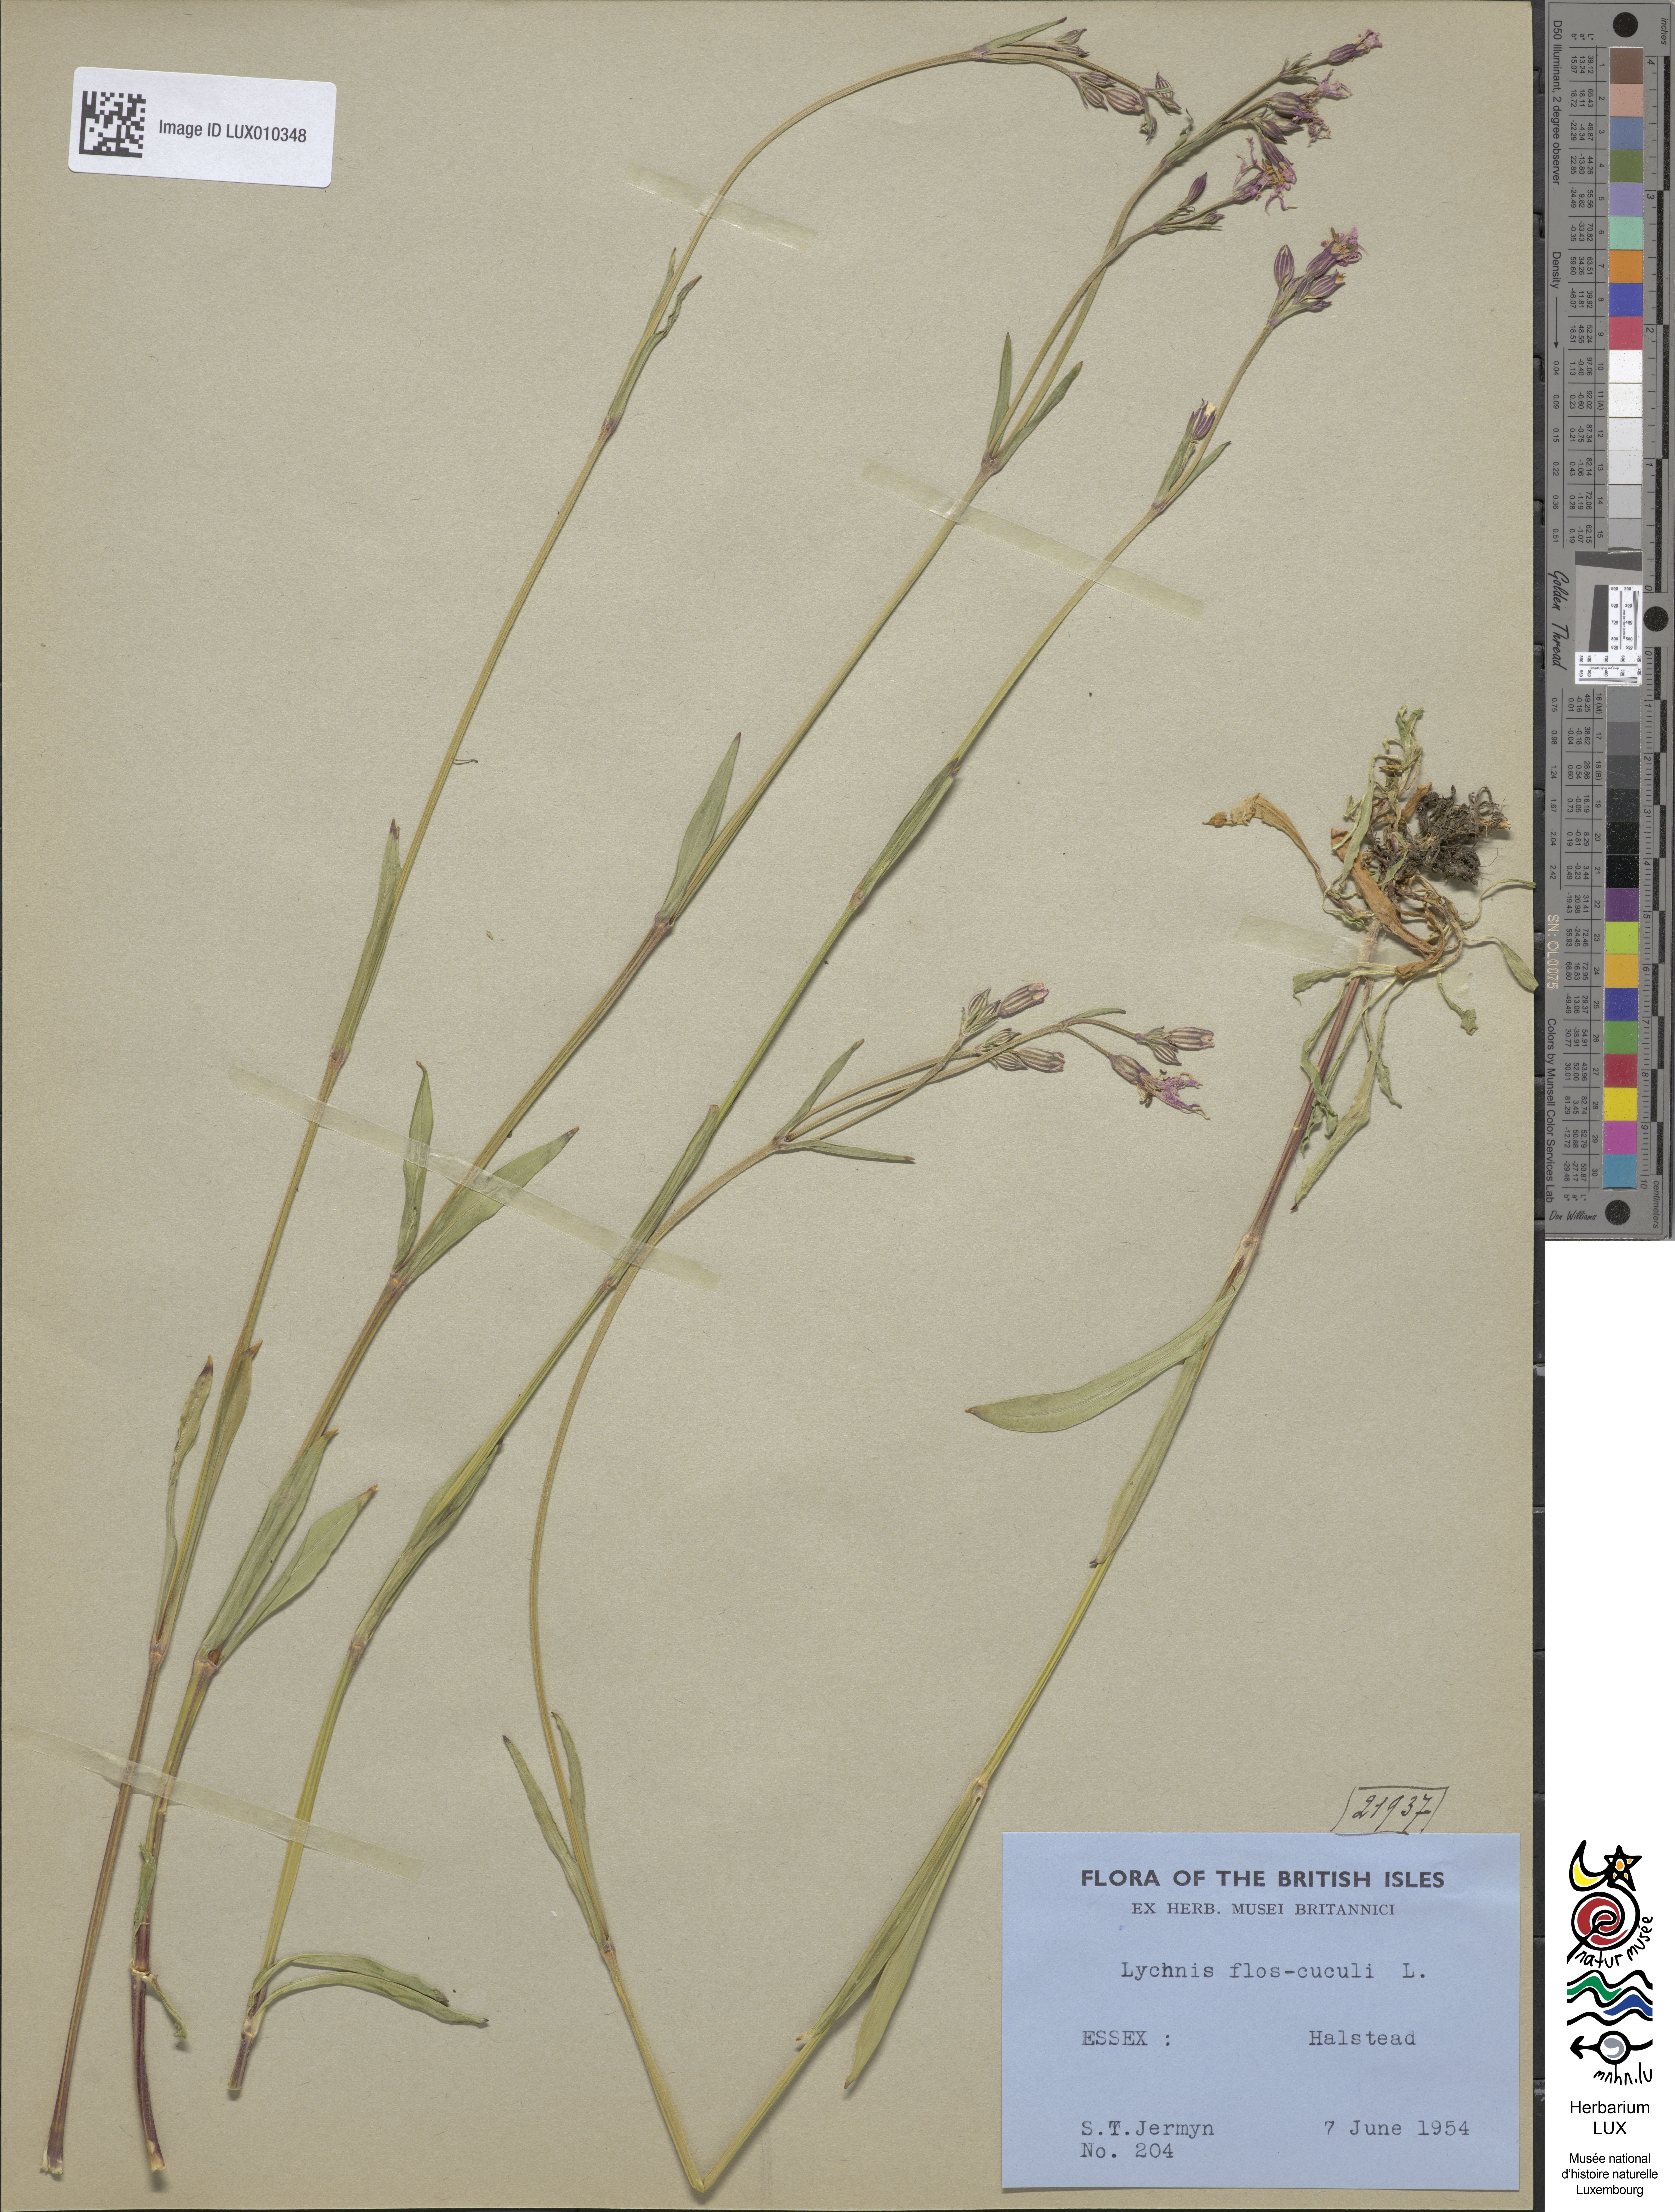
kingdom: Plantae
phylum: Tracheophyta
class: Magnoliopsida
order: Caryophyllales
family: Caryophyllaceae
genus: Silene
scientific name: Silene flos-cuculi
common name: Ragged-robin
